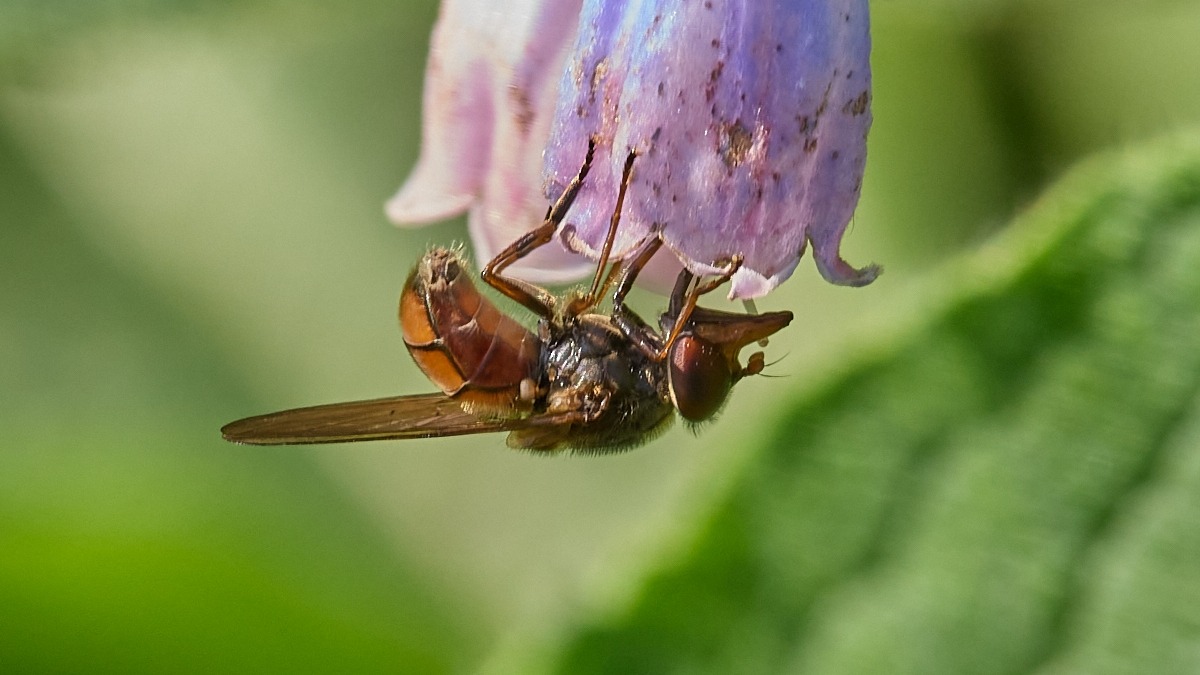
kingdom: Animalia
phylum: Arthropoda
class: Insecta
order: Diptera
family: Syrphidae
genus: Rhingia
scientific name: Rhingia campestris
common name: Mark-snabelsvirreflue
